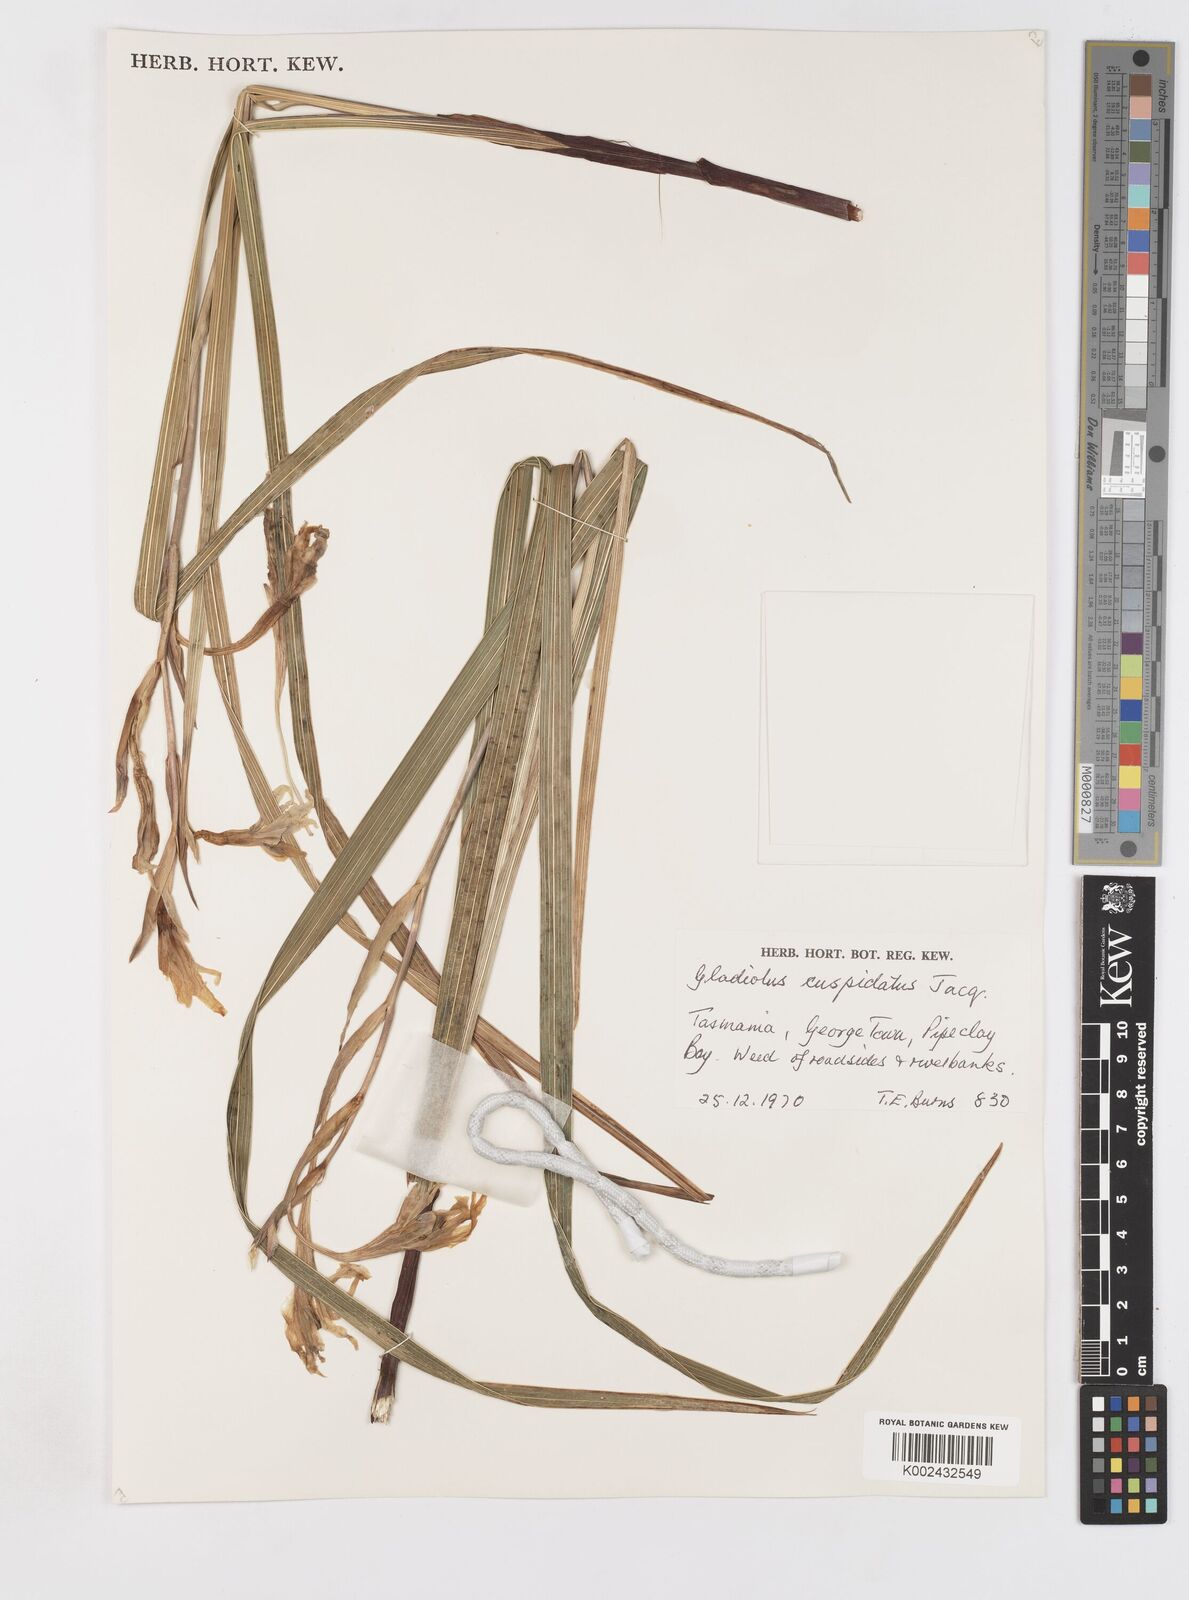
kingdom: Plantae
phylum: Tracheophyta
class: Liliopsida
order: Asparagales
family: Iridaceae
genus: Gladiolus
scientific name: Gladiolus undulatus
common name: Large painted-lady
